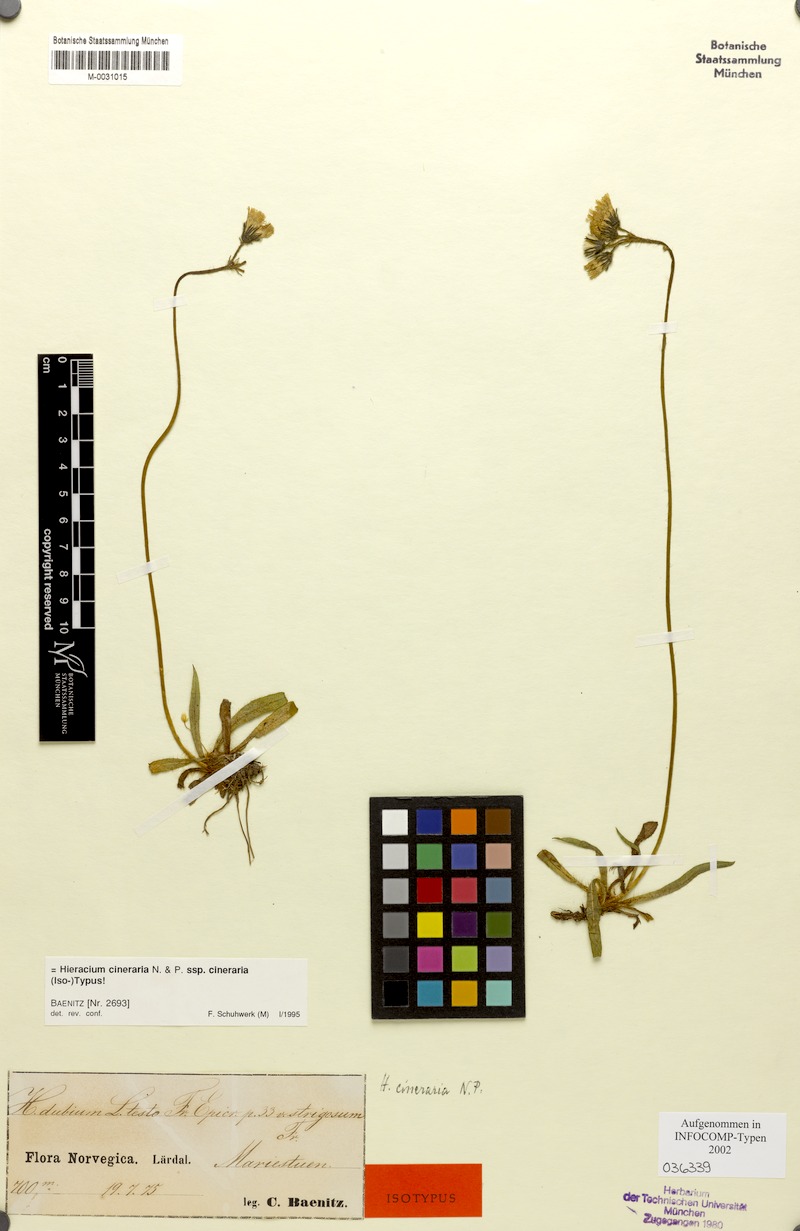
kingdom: Plantae
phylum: Tracheophyta
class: Magnoliopsida
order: Asterales
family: Asteraceae
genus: Pilosella
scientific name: Pilosella moechiadia
